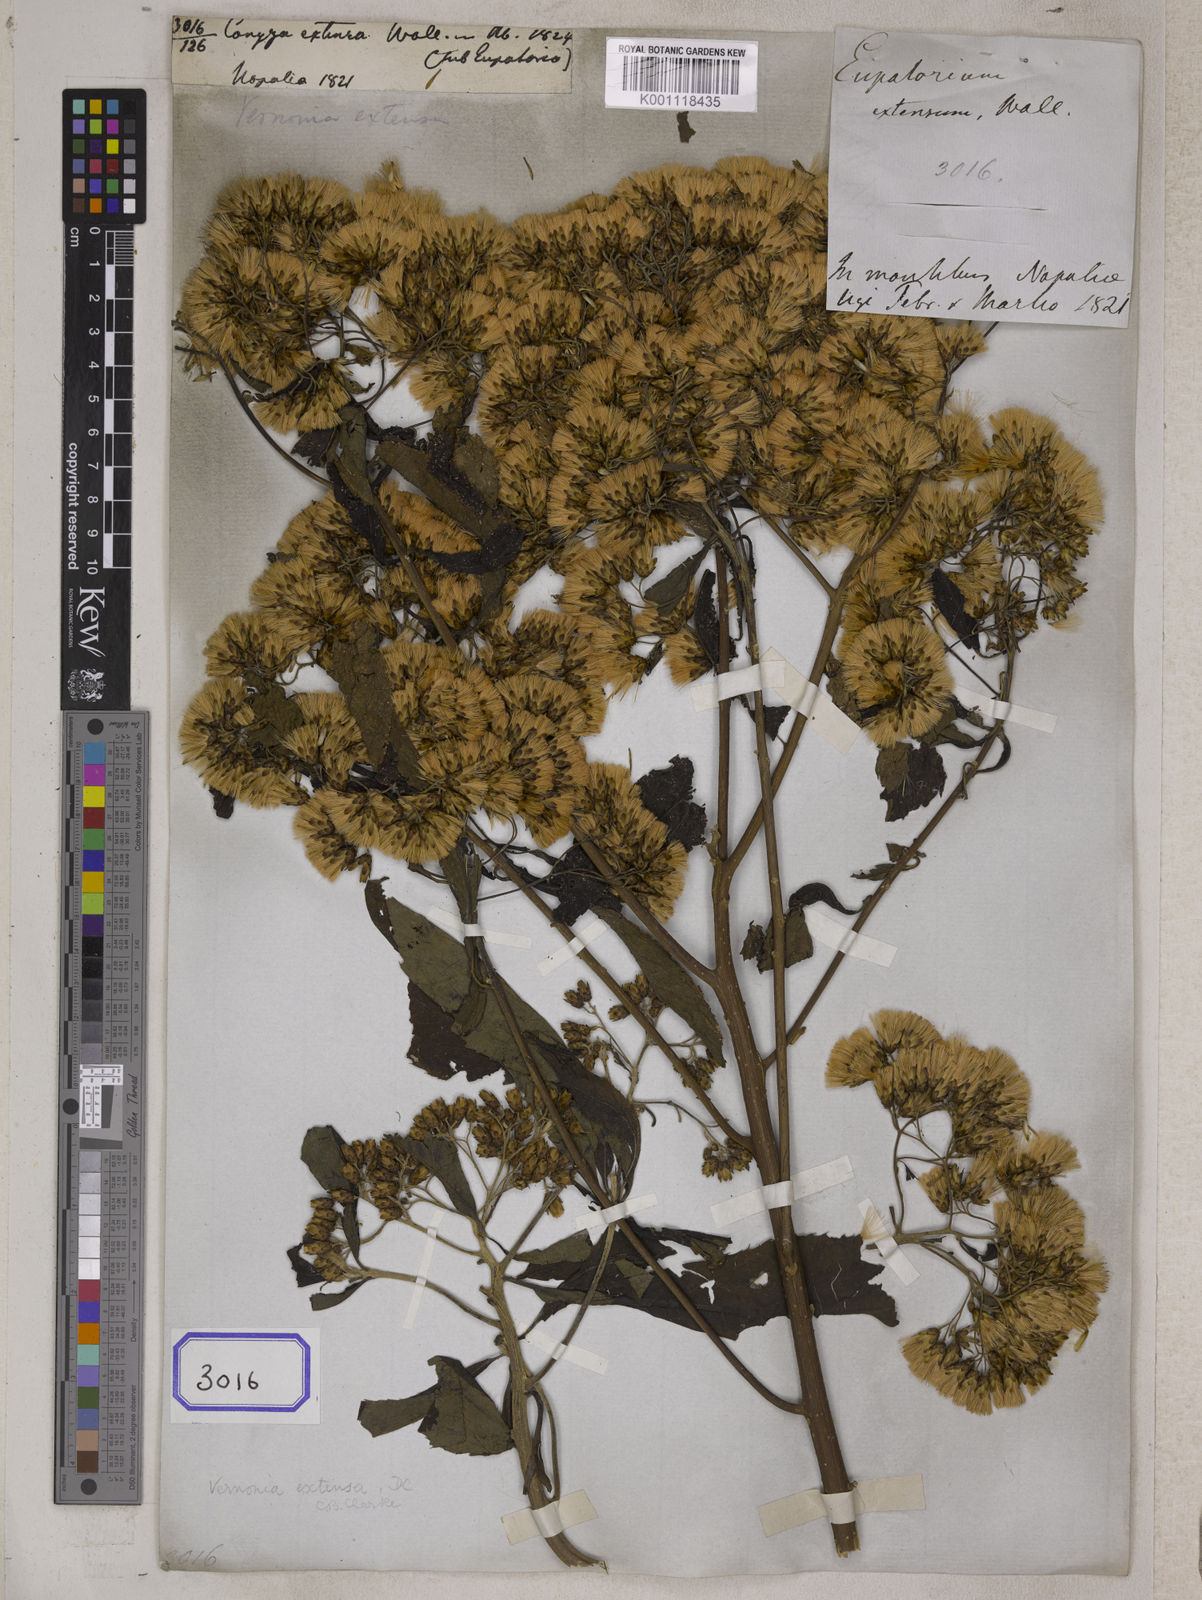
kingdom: Plantae
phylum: Tracheophyta
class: Magnoliopsida
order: Asterales
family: Asteraceae
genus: Gymnanthemum
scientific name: Gymnanthemum extensum
